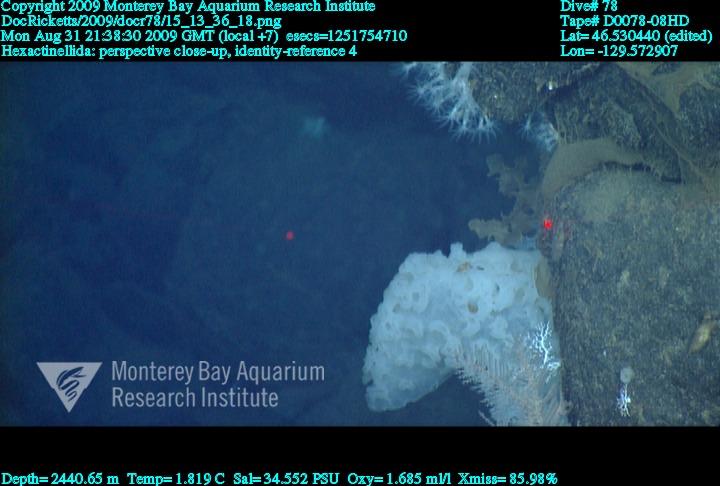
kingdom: Animalia
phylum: Porifera
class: Hexactinellida
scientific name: Hexactinellida
